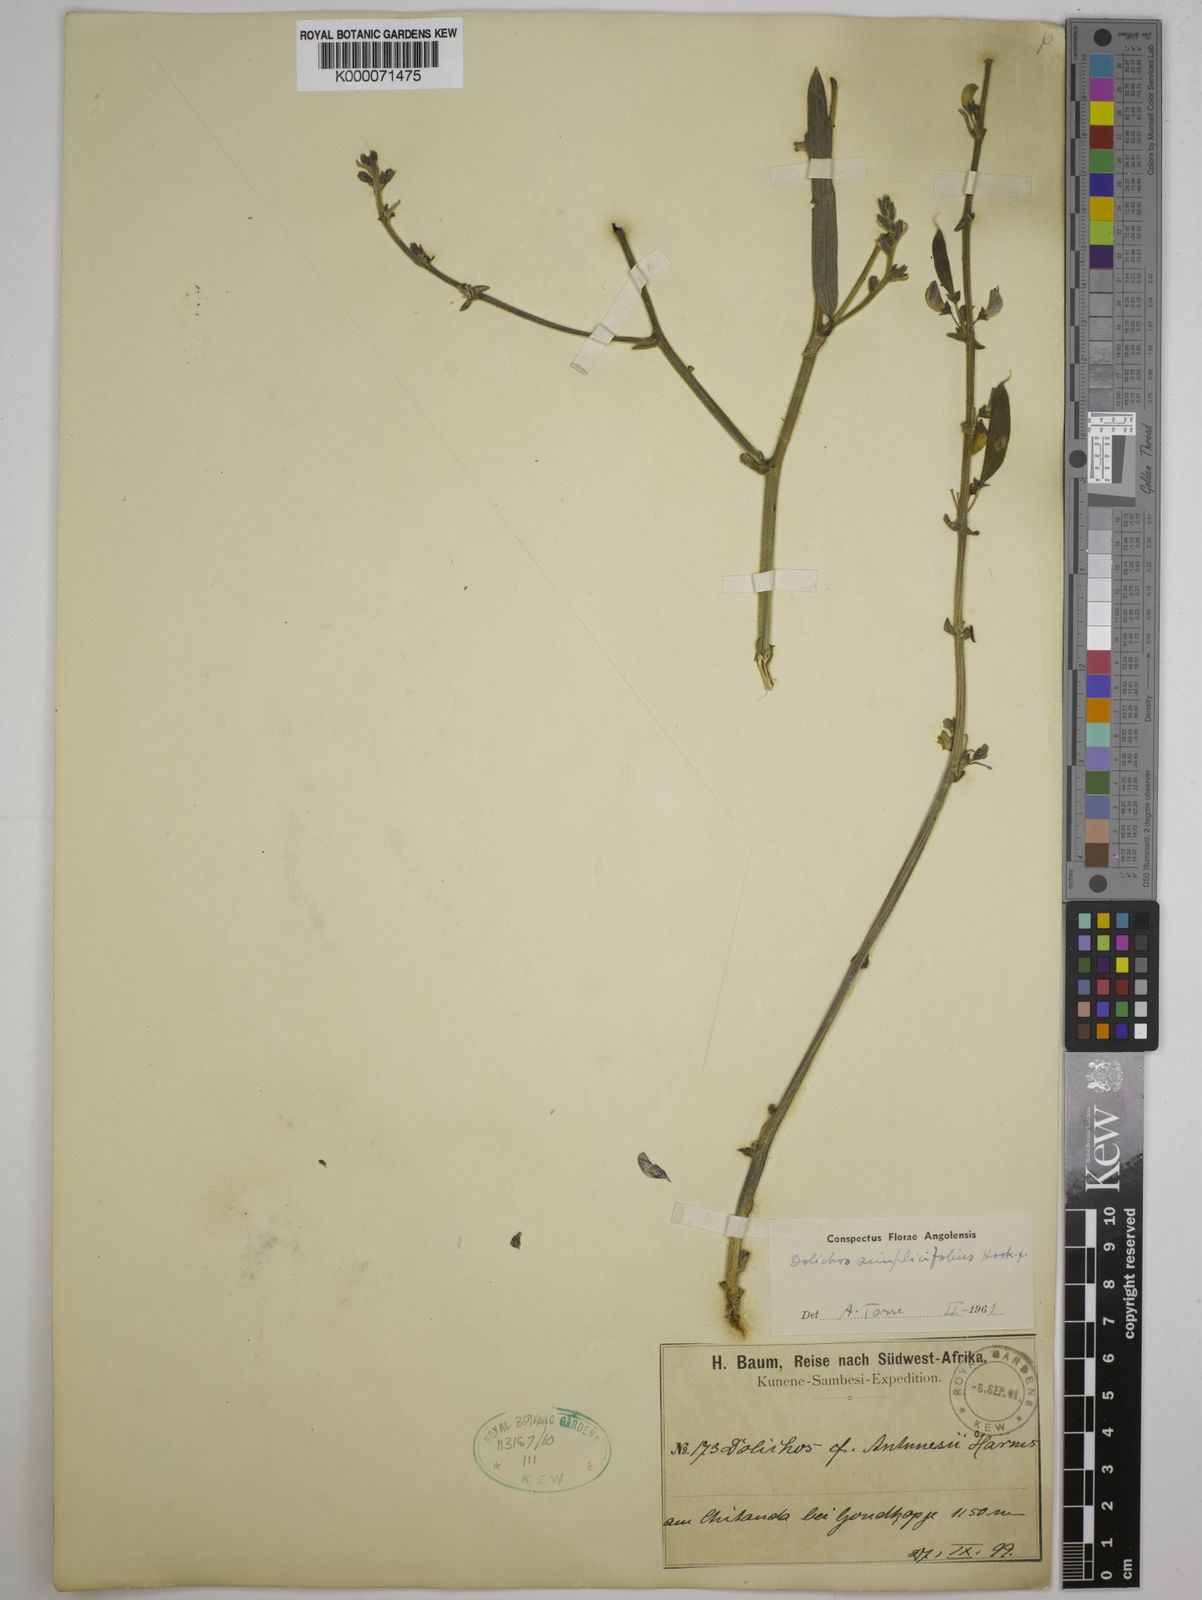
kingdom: Plantae
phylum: Tracheophyta
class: Magnoliopsida
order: Fabales
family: Fabaceae
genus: Dolichos
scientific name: Dolichos simplicifolius
